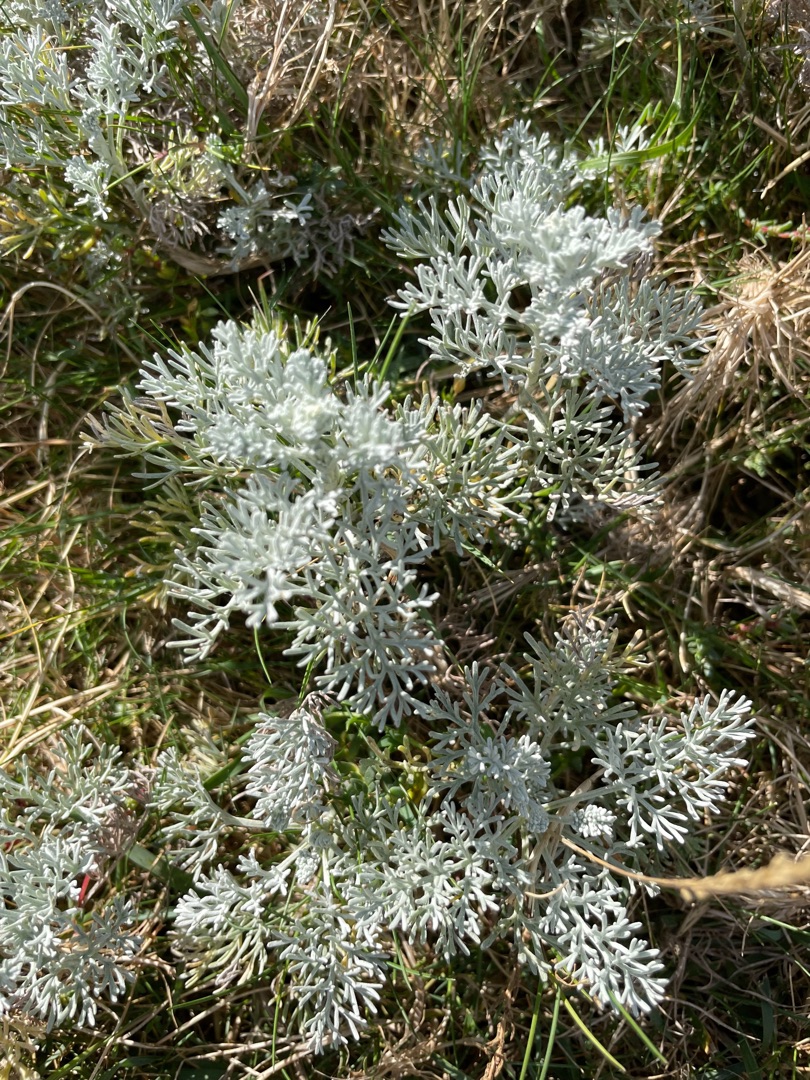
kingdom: Plantae
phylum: Tracheophyta
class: Magnoliopsida
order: Asterales
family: Asteraceae
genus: Artemisia
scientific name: Artemisia maritima
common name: Strandmalurt
